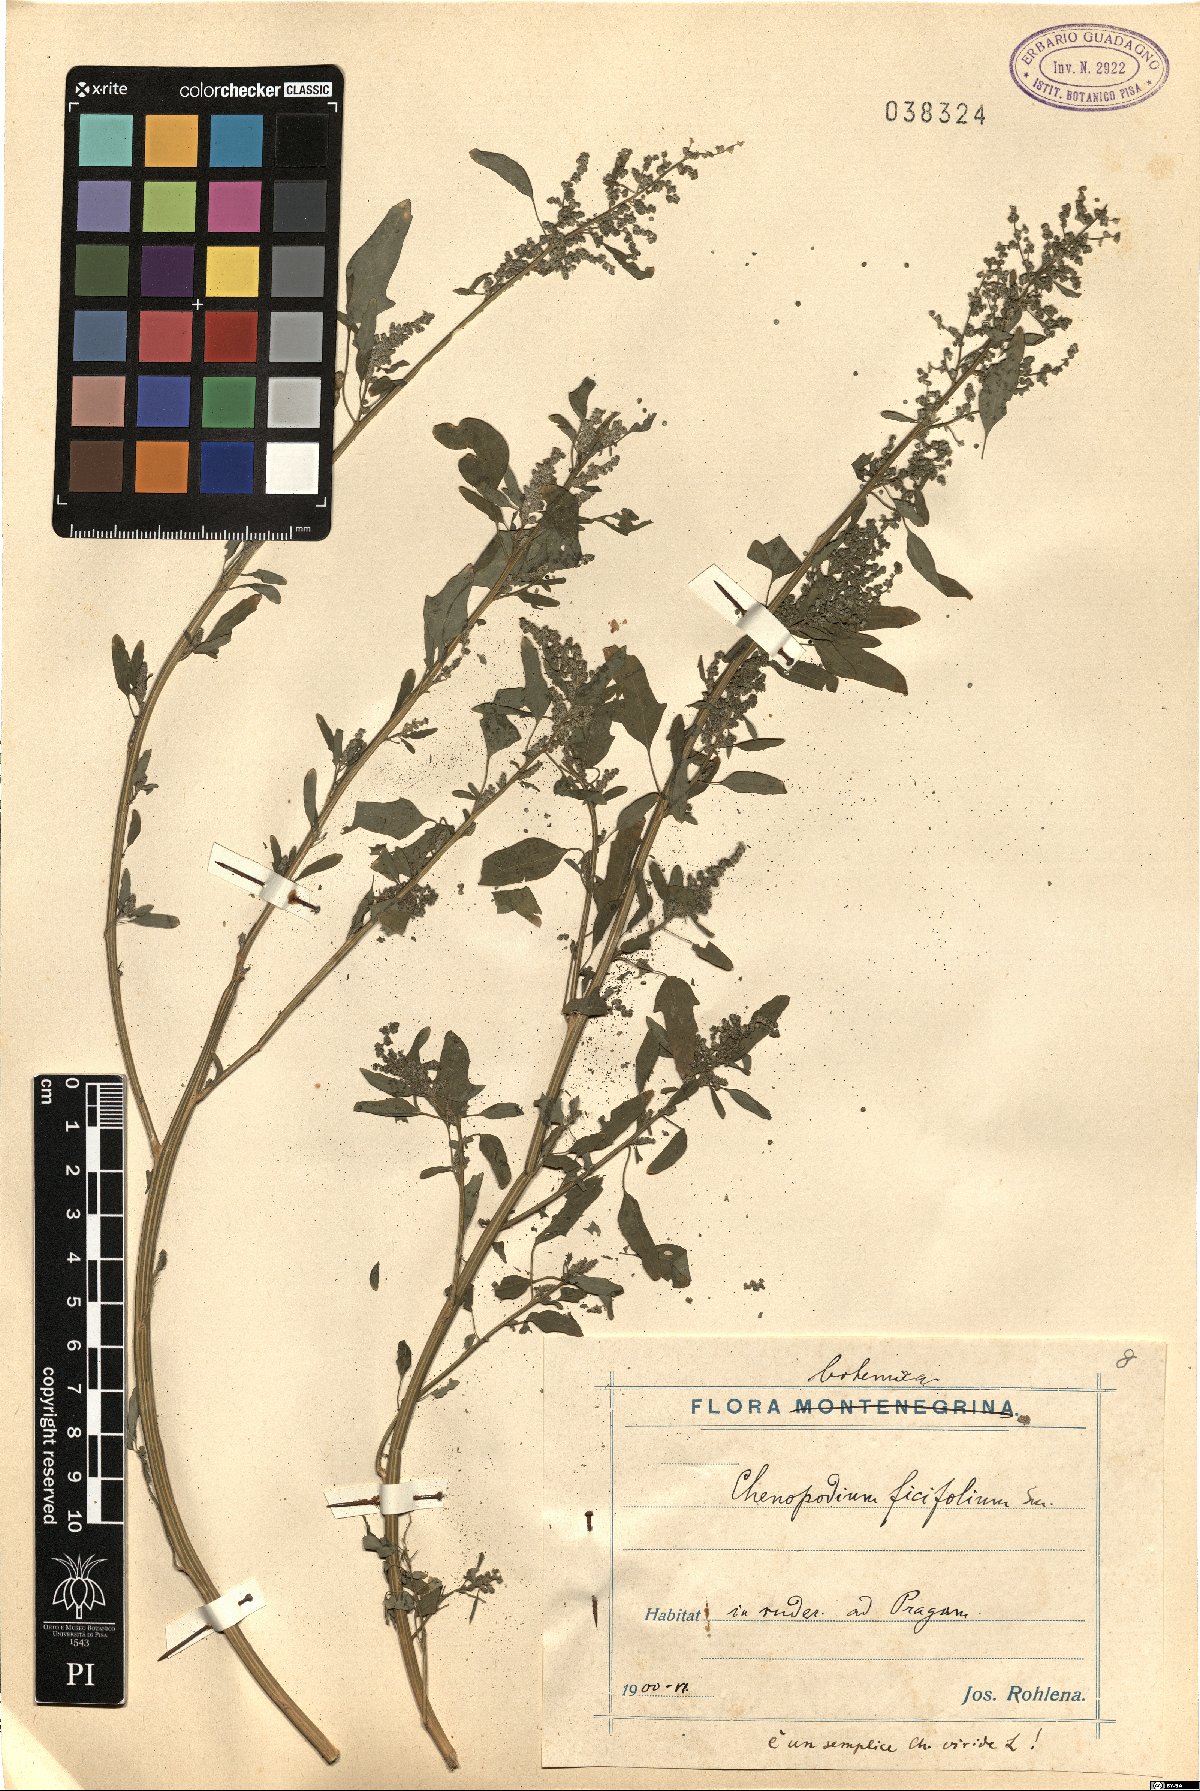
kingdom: Plantae
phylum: Tracheophyta
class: Magnoliopsida
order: Caryophyllales
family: Amaranthaceae
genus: Chenopodium
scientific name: Chenopodium album
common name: Fat-hen
